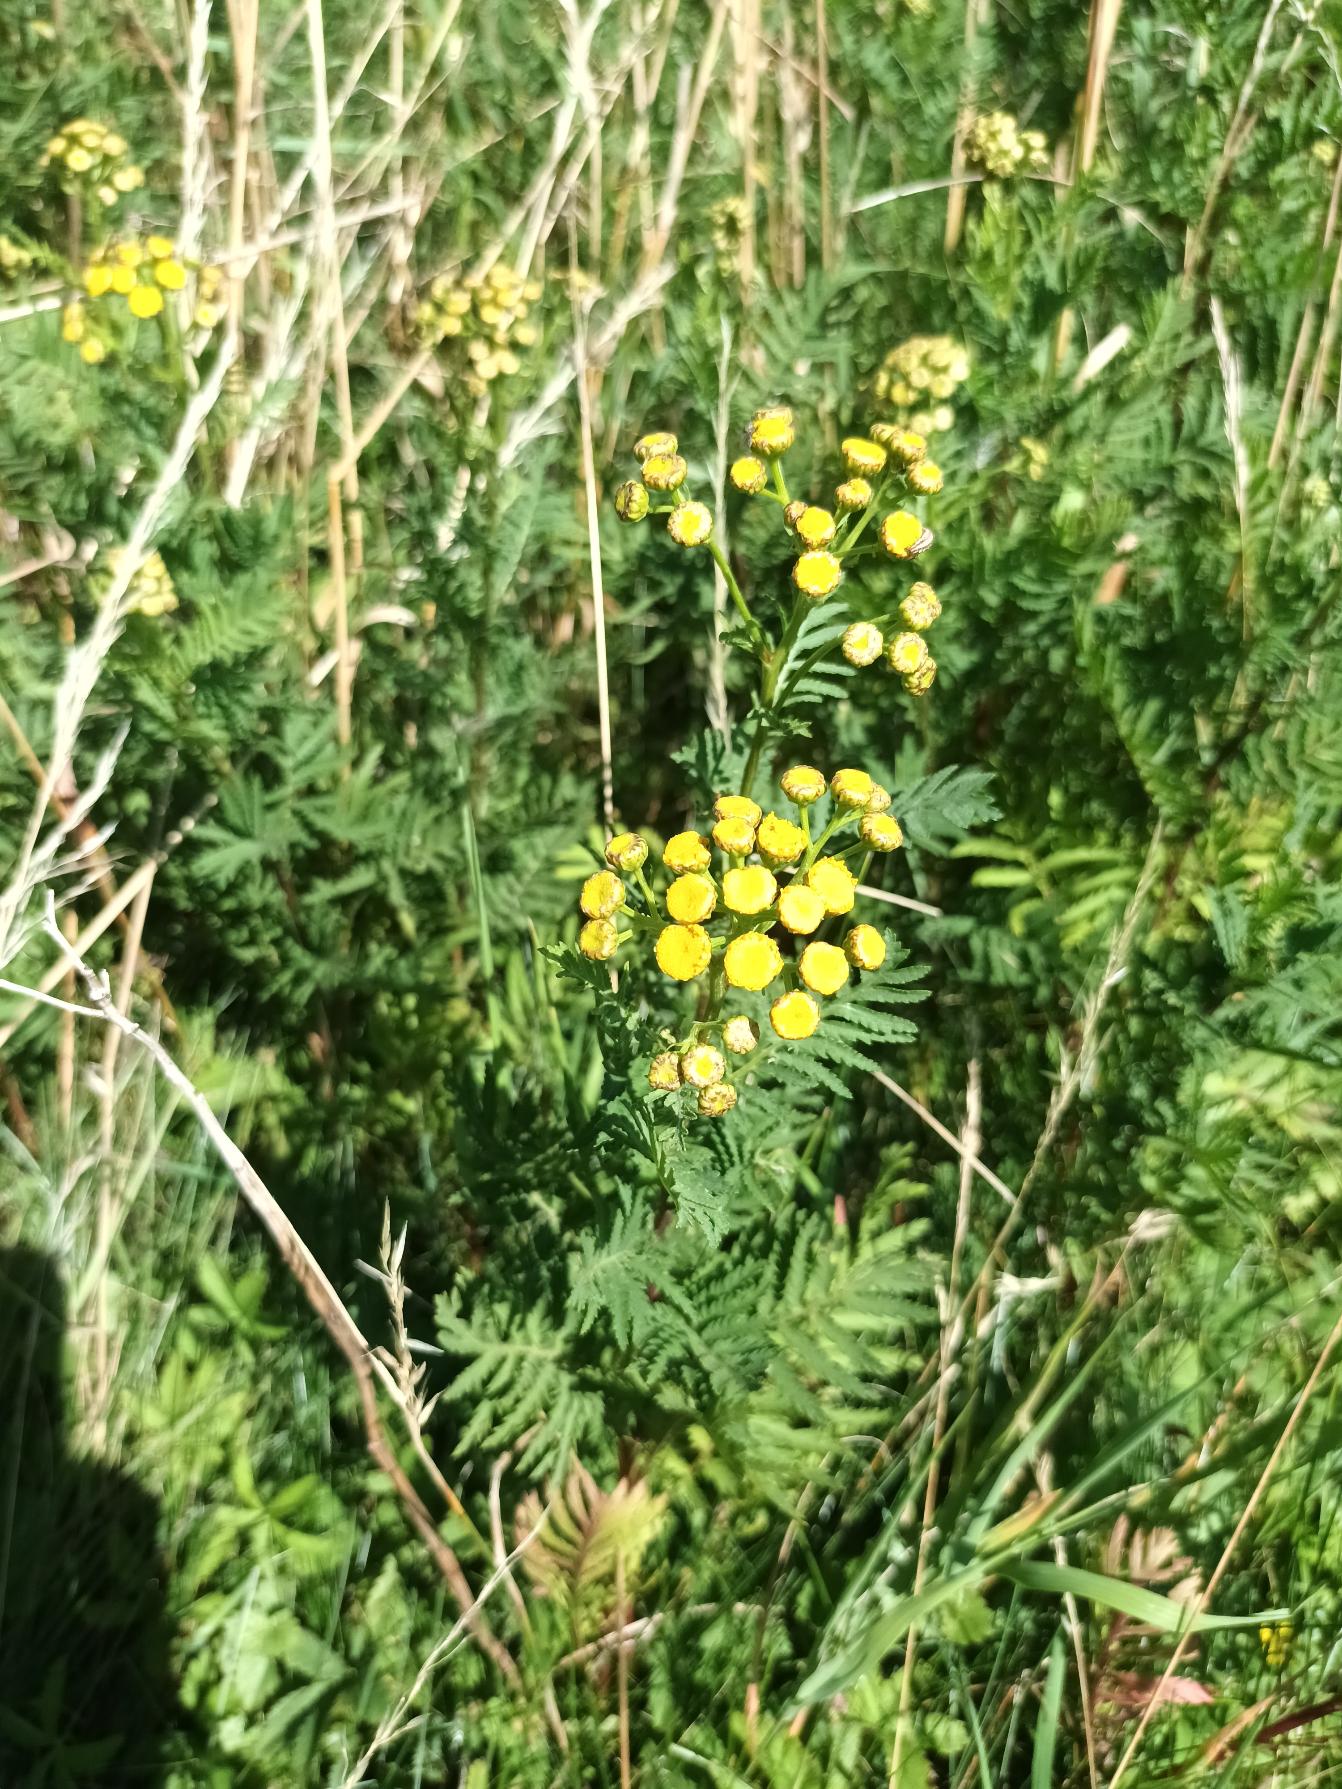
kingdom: Plantae
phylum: Tracheophyta
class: Magnoliopsida
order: Asterales
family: Asteraceae
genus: Tanacetum
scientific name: Tanacetum vulgare
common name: Rejnfan
